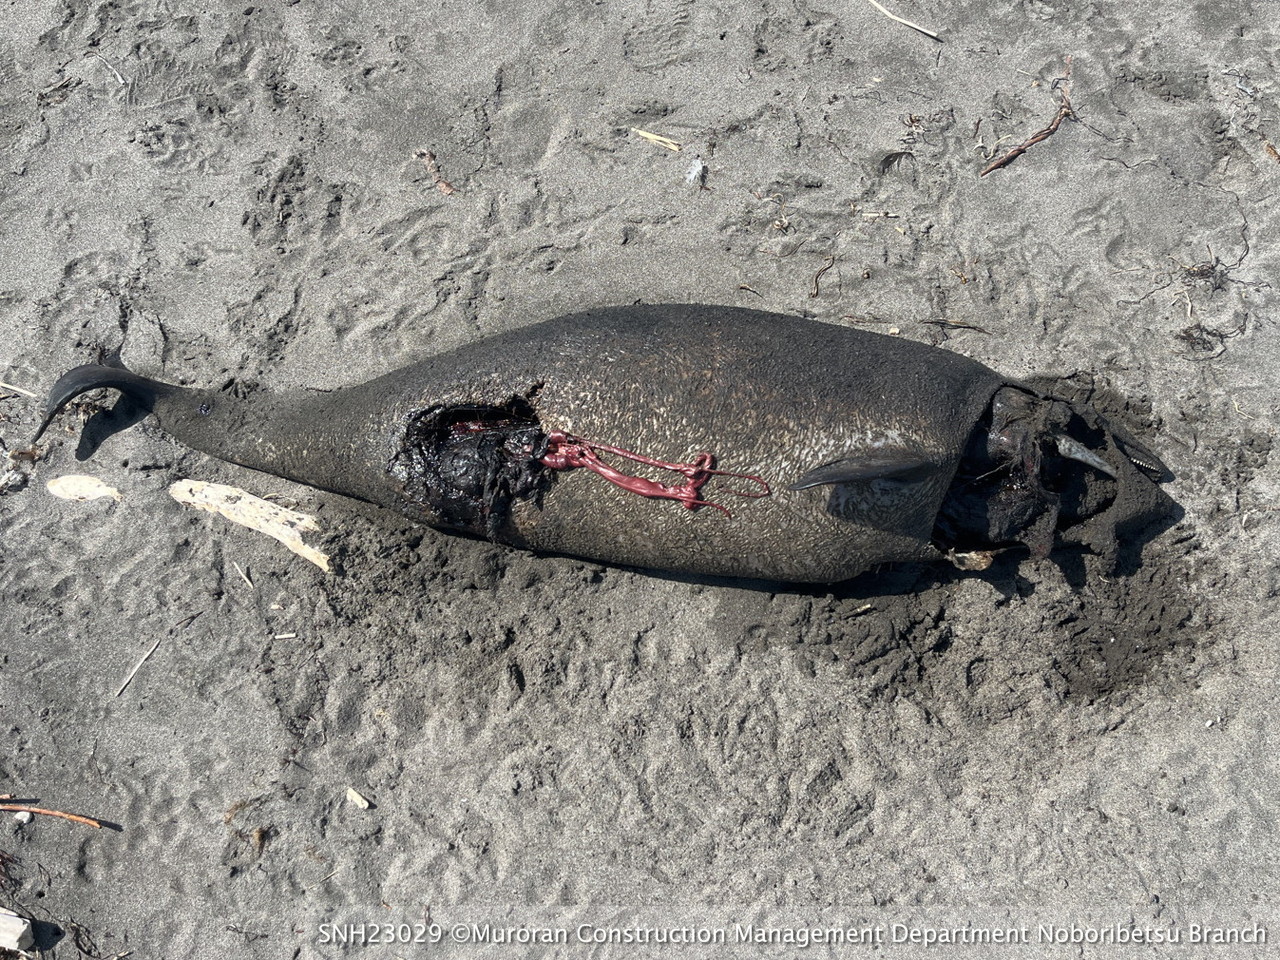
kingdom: Animalia
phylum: Chordata
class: Mammalia
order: Cetacea
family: Phocoenidae
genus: Phocoena
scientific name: Phocoena phocoena
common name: Harbour porpoise
